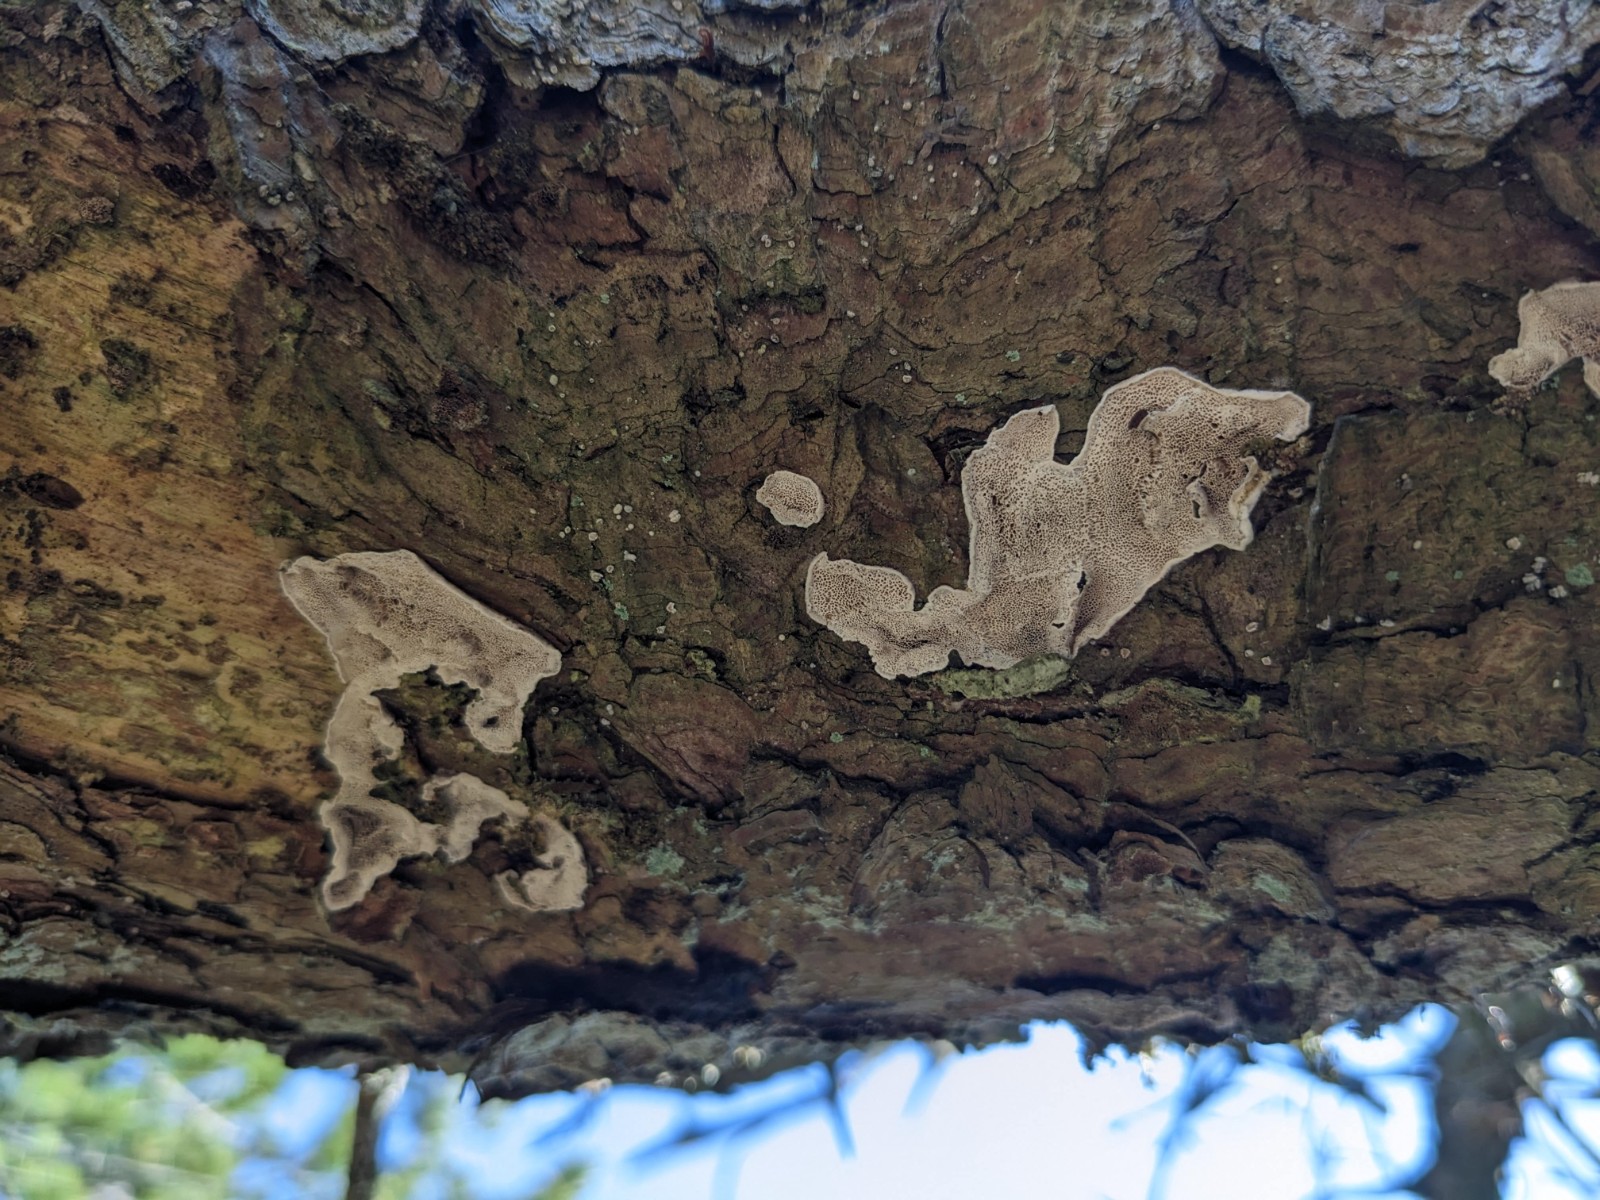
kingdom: Fungi
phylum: Basidiomycota
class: Agaricomycetes
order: Polyporales
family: Fomitopsidaceae
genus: Fomitopsis
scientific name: Fomitopsis
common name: fyrre-skiveporesvamp
